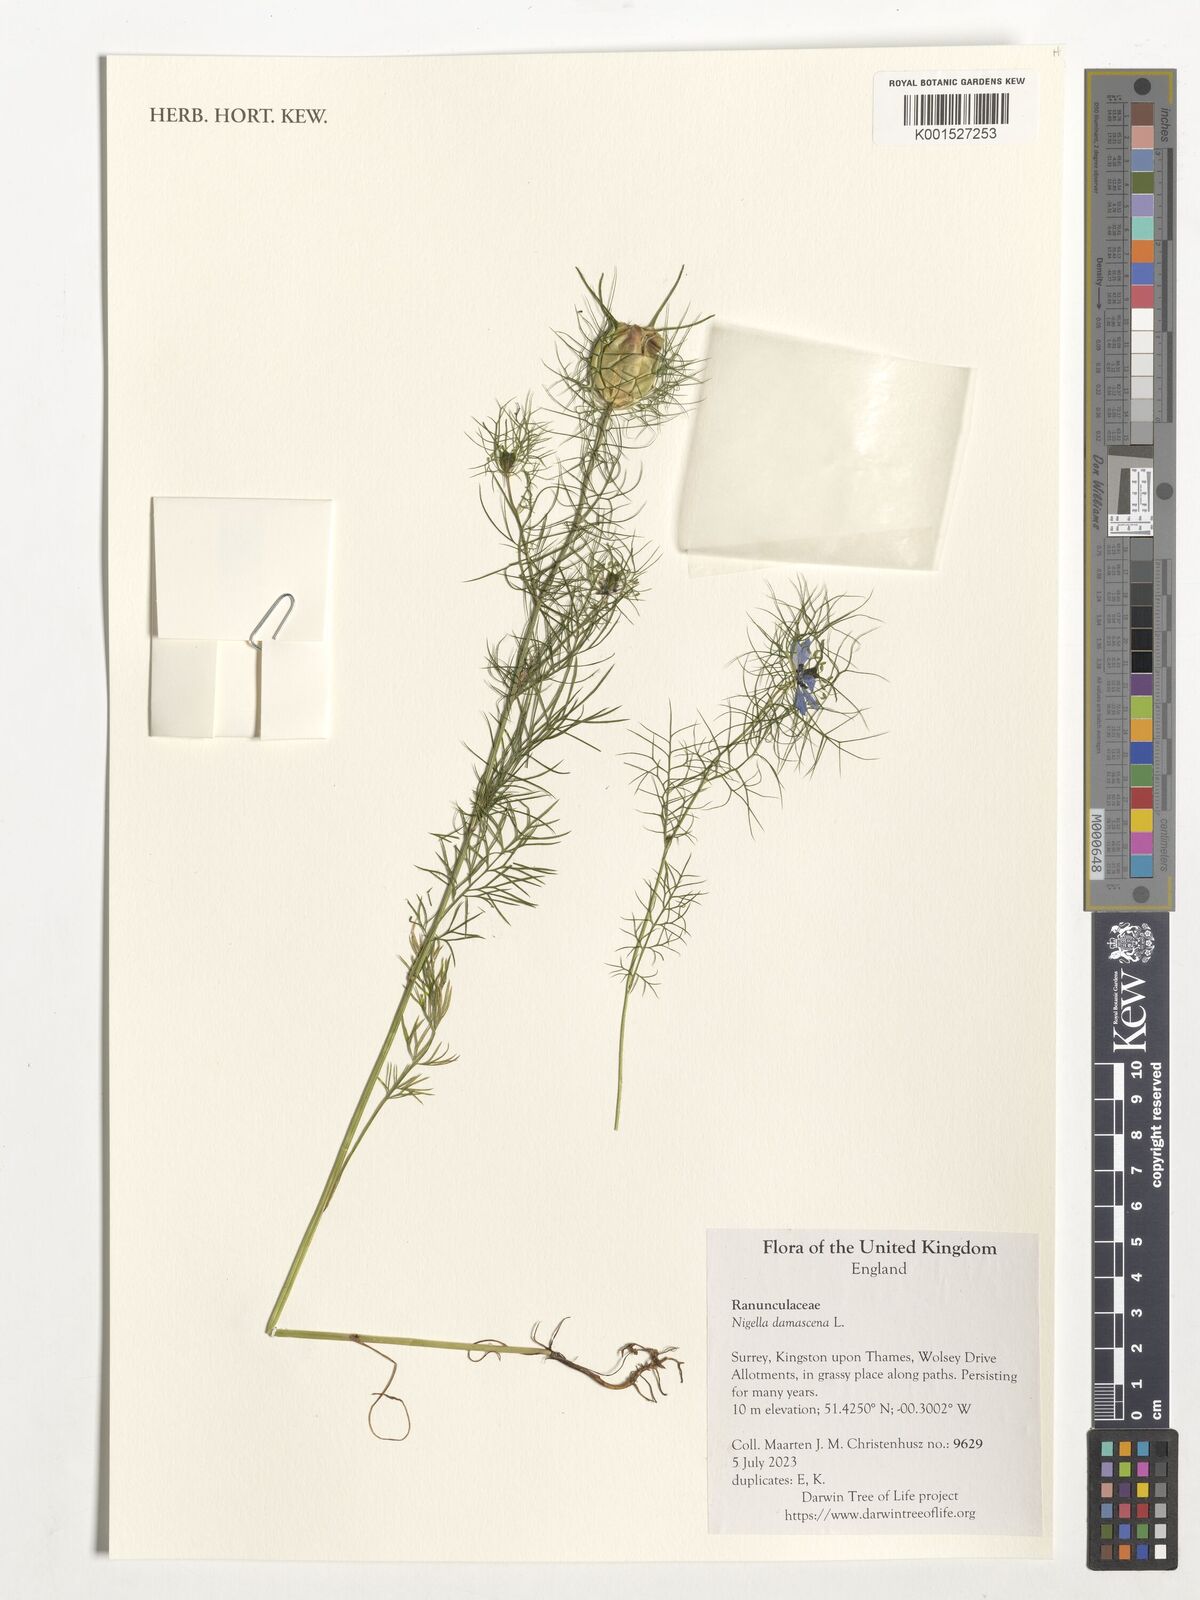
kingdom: Plantae
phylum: Tracheophyta
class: Magnoliopsida
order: Ranunculales
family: Ranunculaceae
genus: Nigella
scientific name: Nigella damascena
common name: Love-in-a-mist
